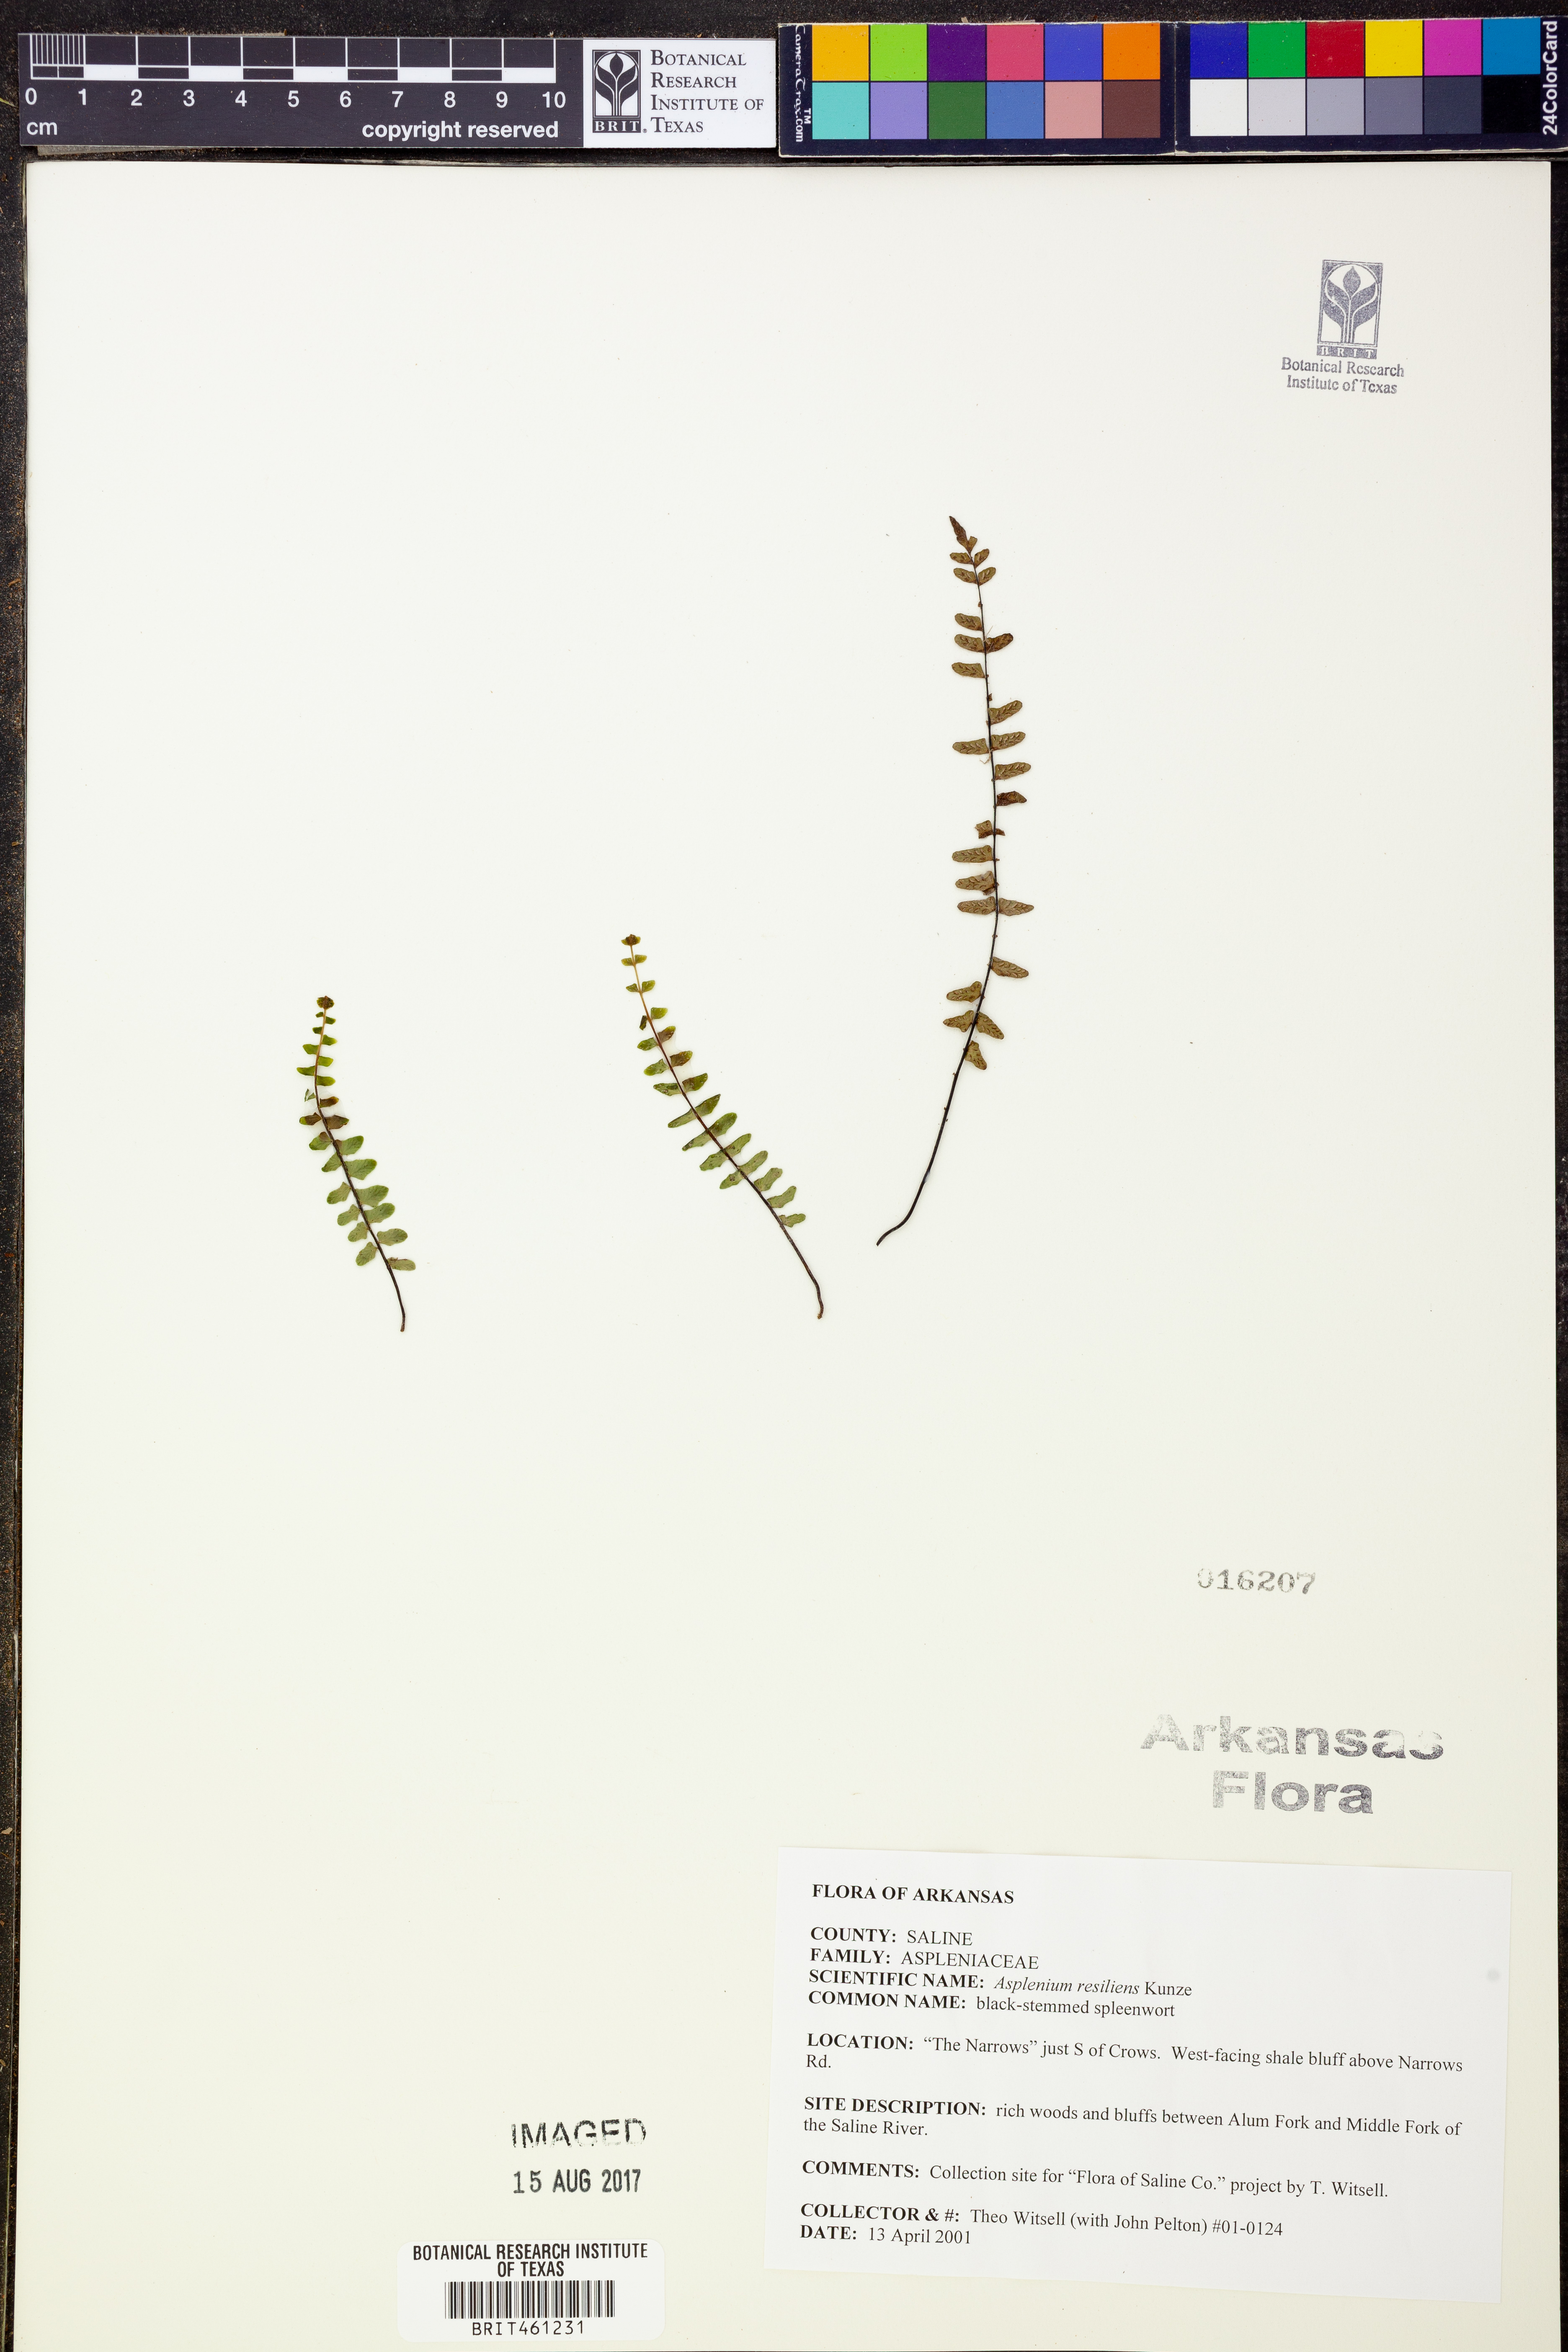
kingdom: Plantae
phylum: Tracheophyta
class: Polypodiopsida
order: Polypodiales
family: Aspleniaceae
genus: Asplenium
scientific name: Asplenium resiliens
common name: Blackstem spleenwort
